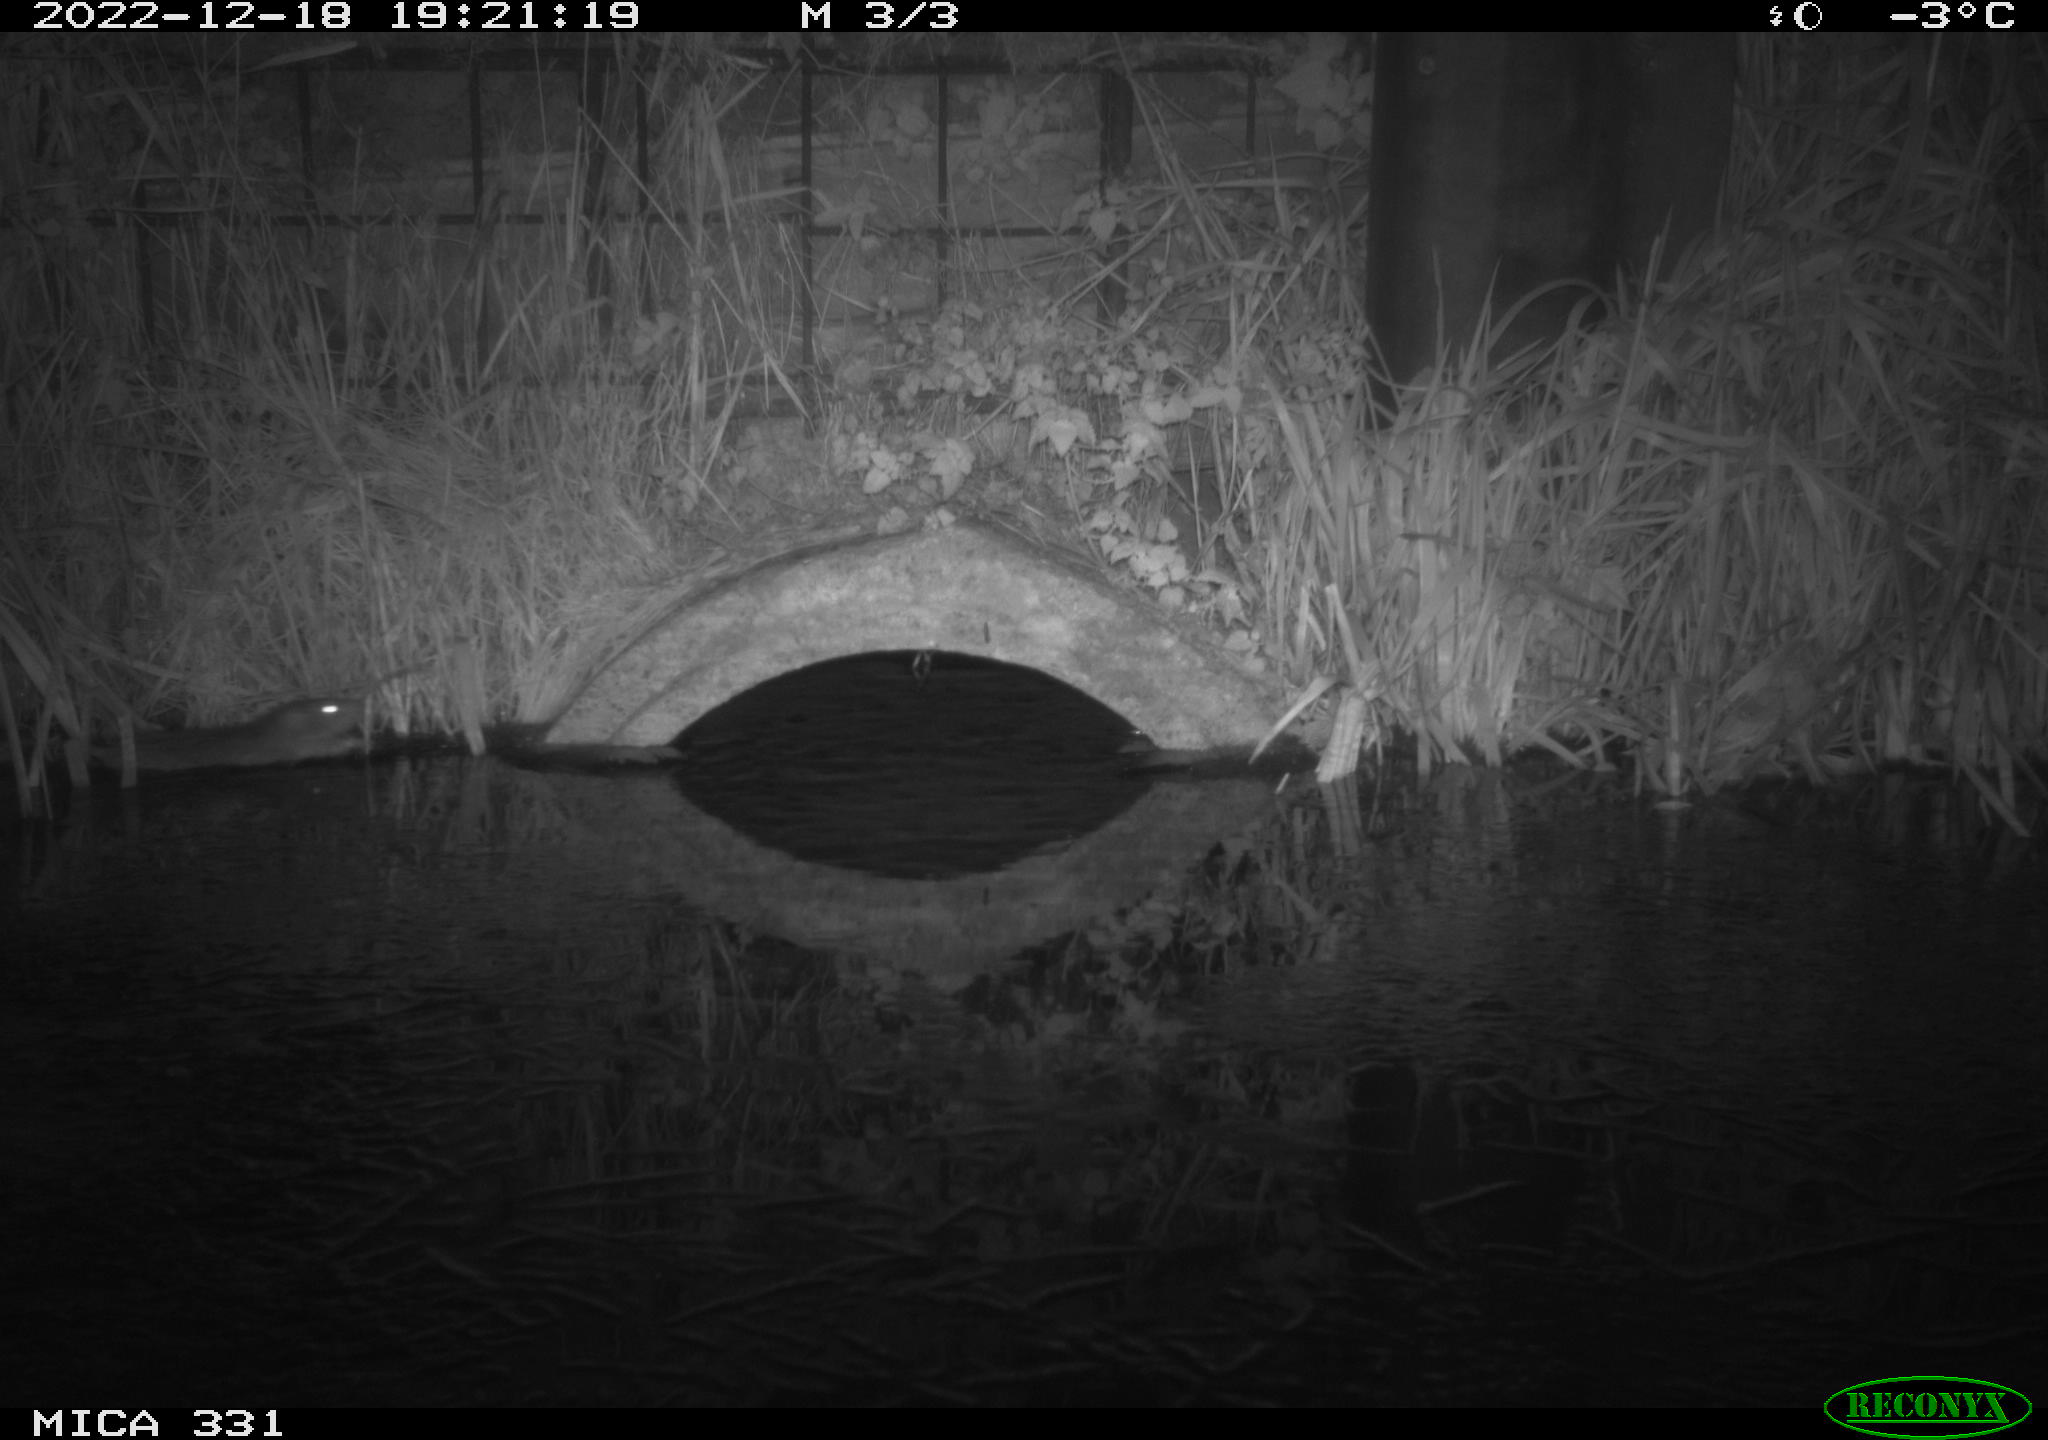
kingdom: Animalia
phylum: Chordata
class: Mammalia
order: Rodentia
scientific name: Rodentia
